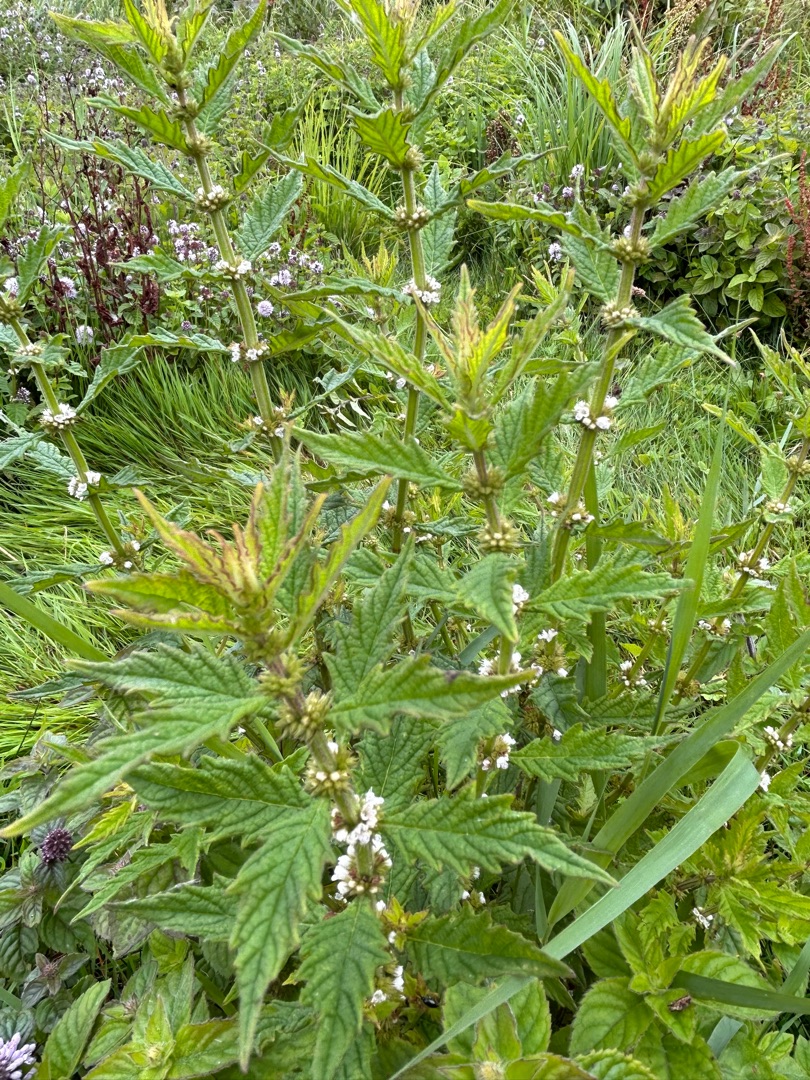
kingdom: Plantae
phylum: Tracheophyta
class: Magnoliopsida
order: Lamiales
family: Lamiaceae
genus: Lycopus
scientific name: Lycopus europaeus
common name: Sværtevæld
